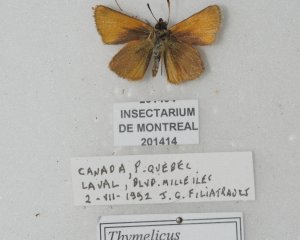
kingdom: Animalia
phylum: Arthropoda
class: Insecta
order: Lepidoptera
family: Hesperiidae
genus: Thymelicus
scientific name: Thymelicus lineola
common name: European Skipper
